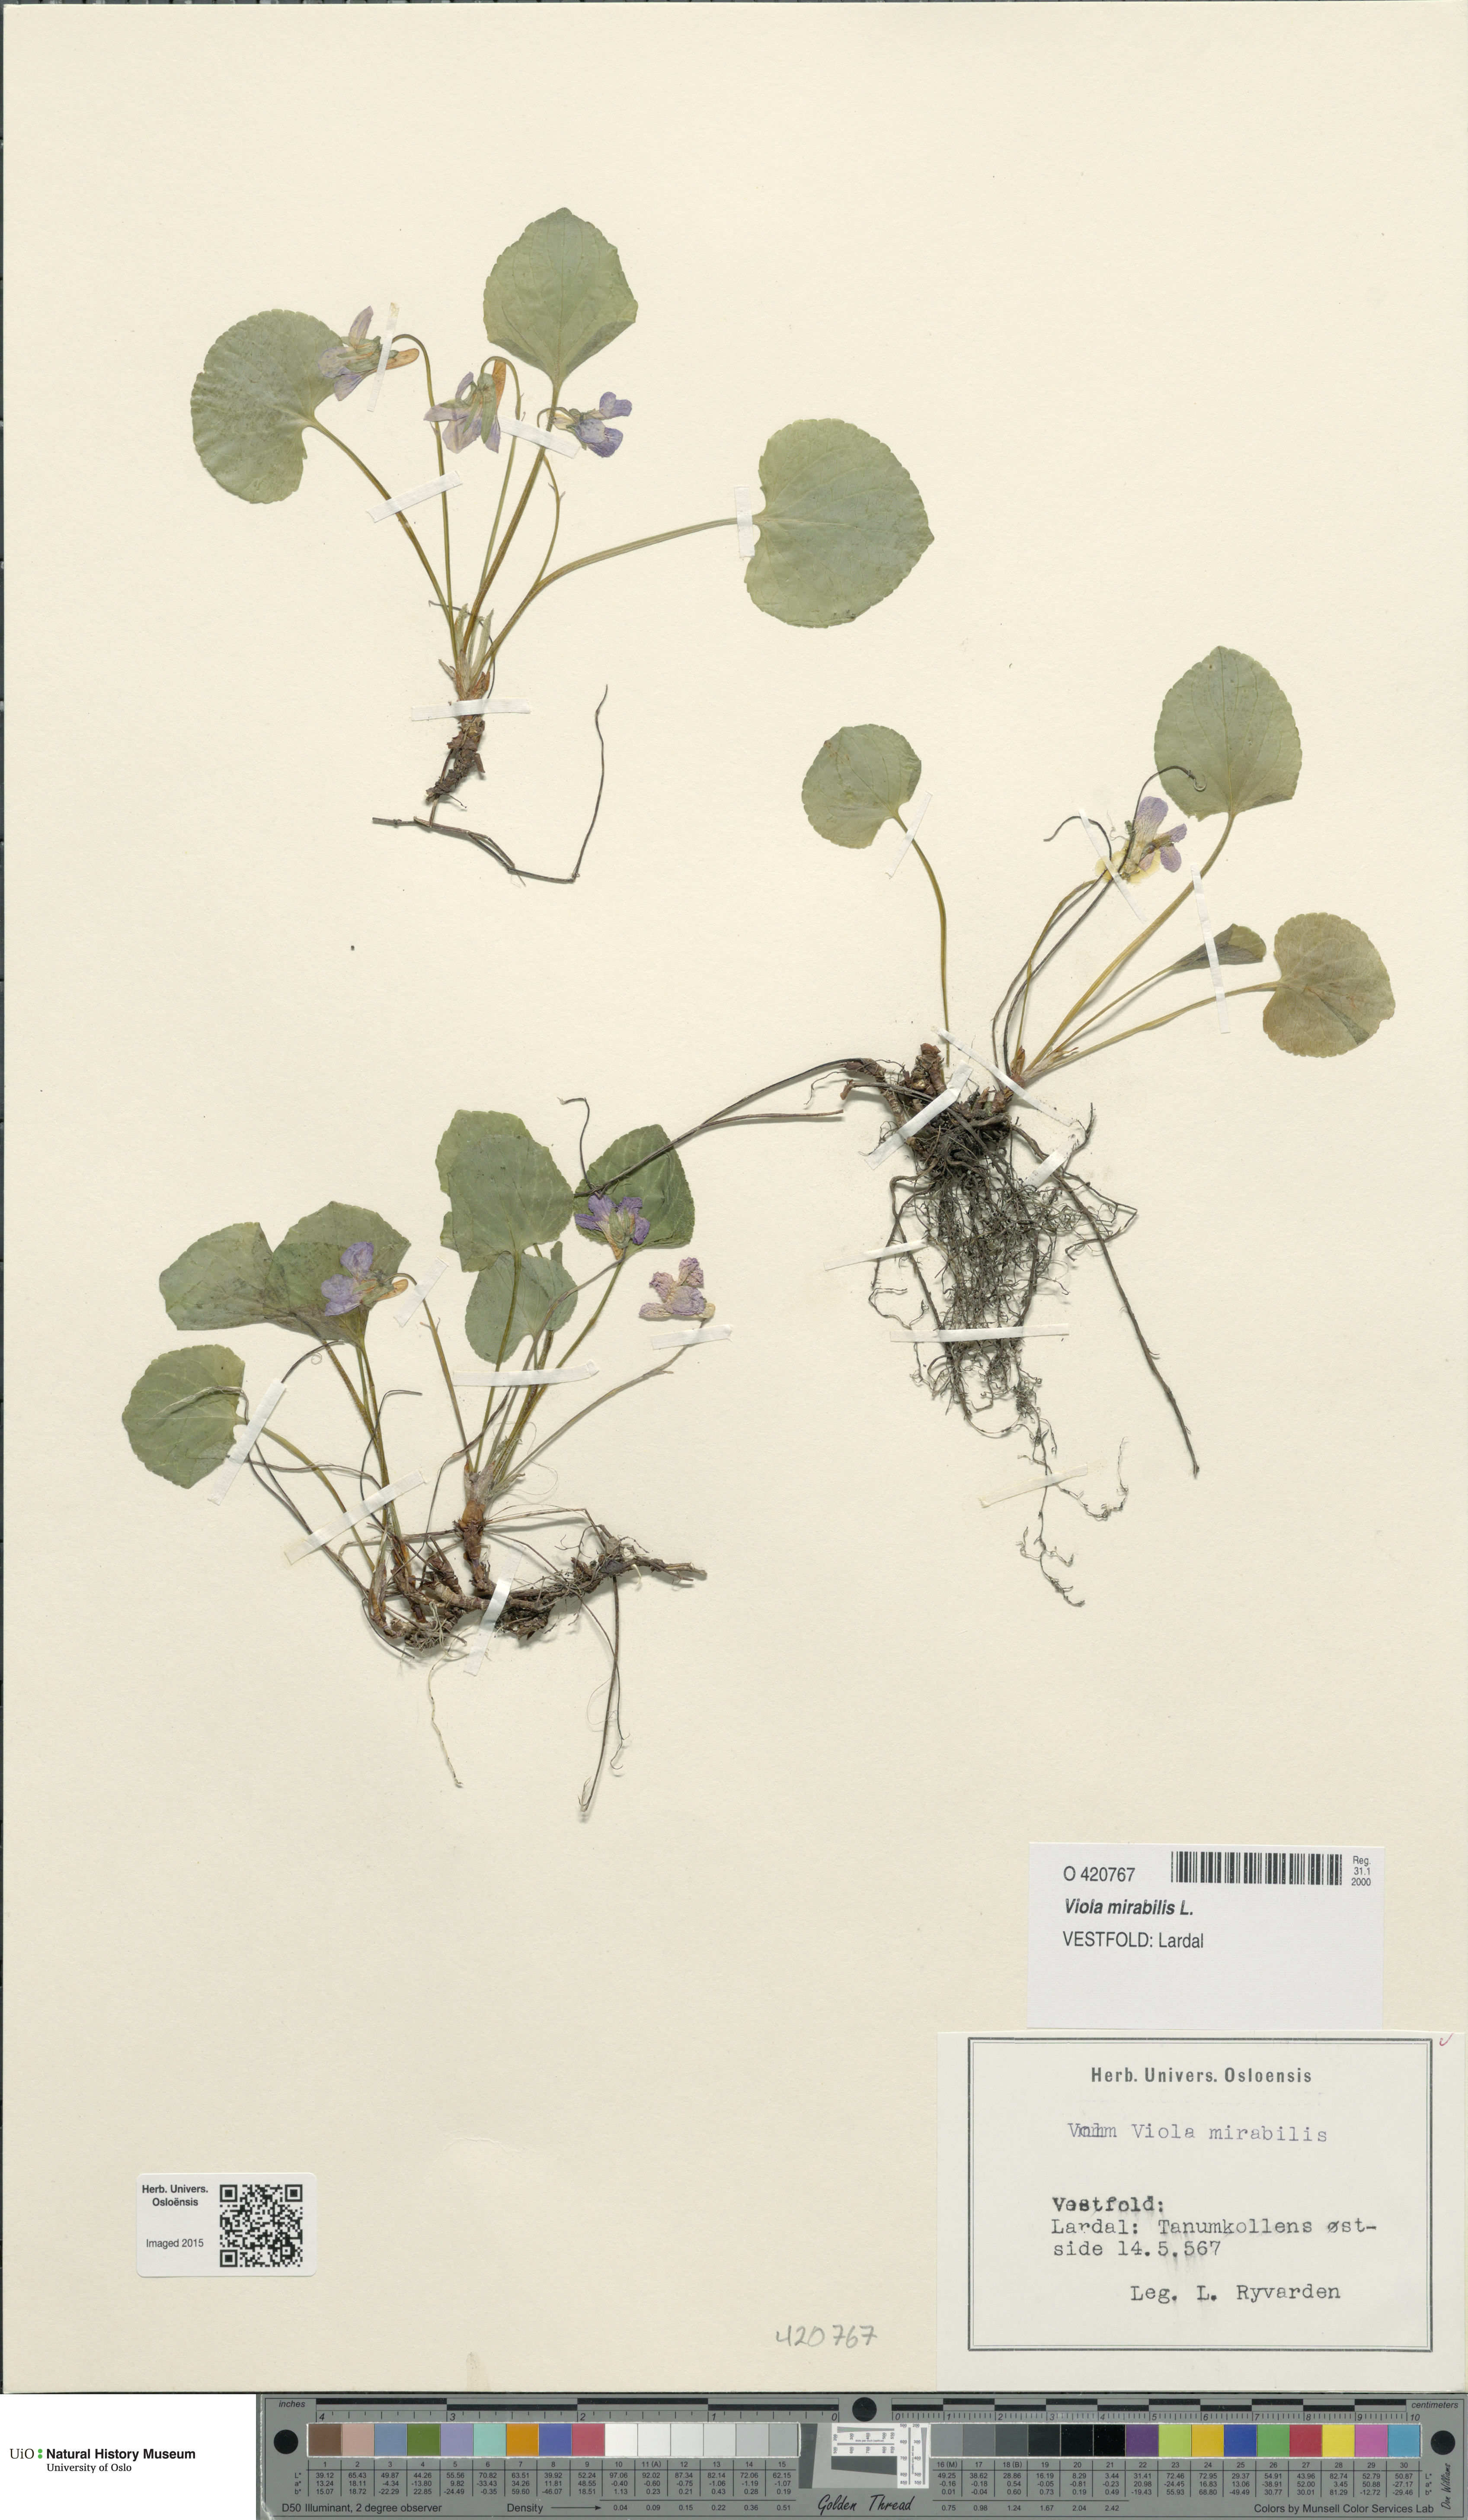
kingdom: Plantae
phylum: Tracheophyta
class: Magnoliopsida
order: Malpighiales
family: Violaceae
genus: Viola
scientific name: Viola mirabilis
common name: Wonder violet
